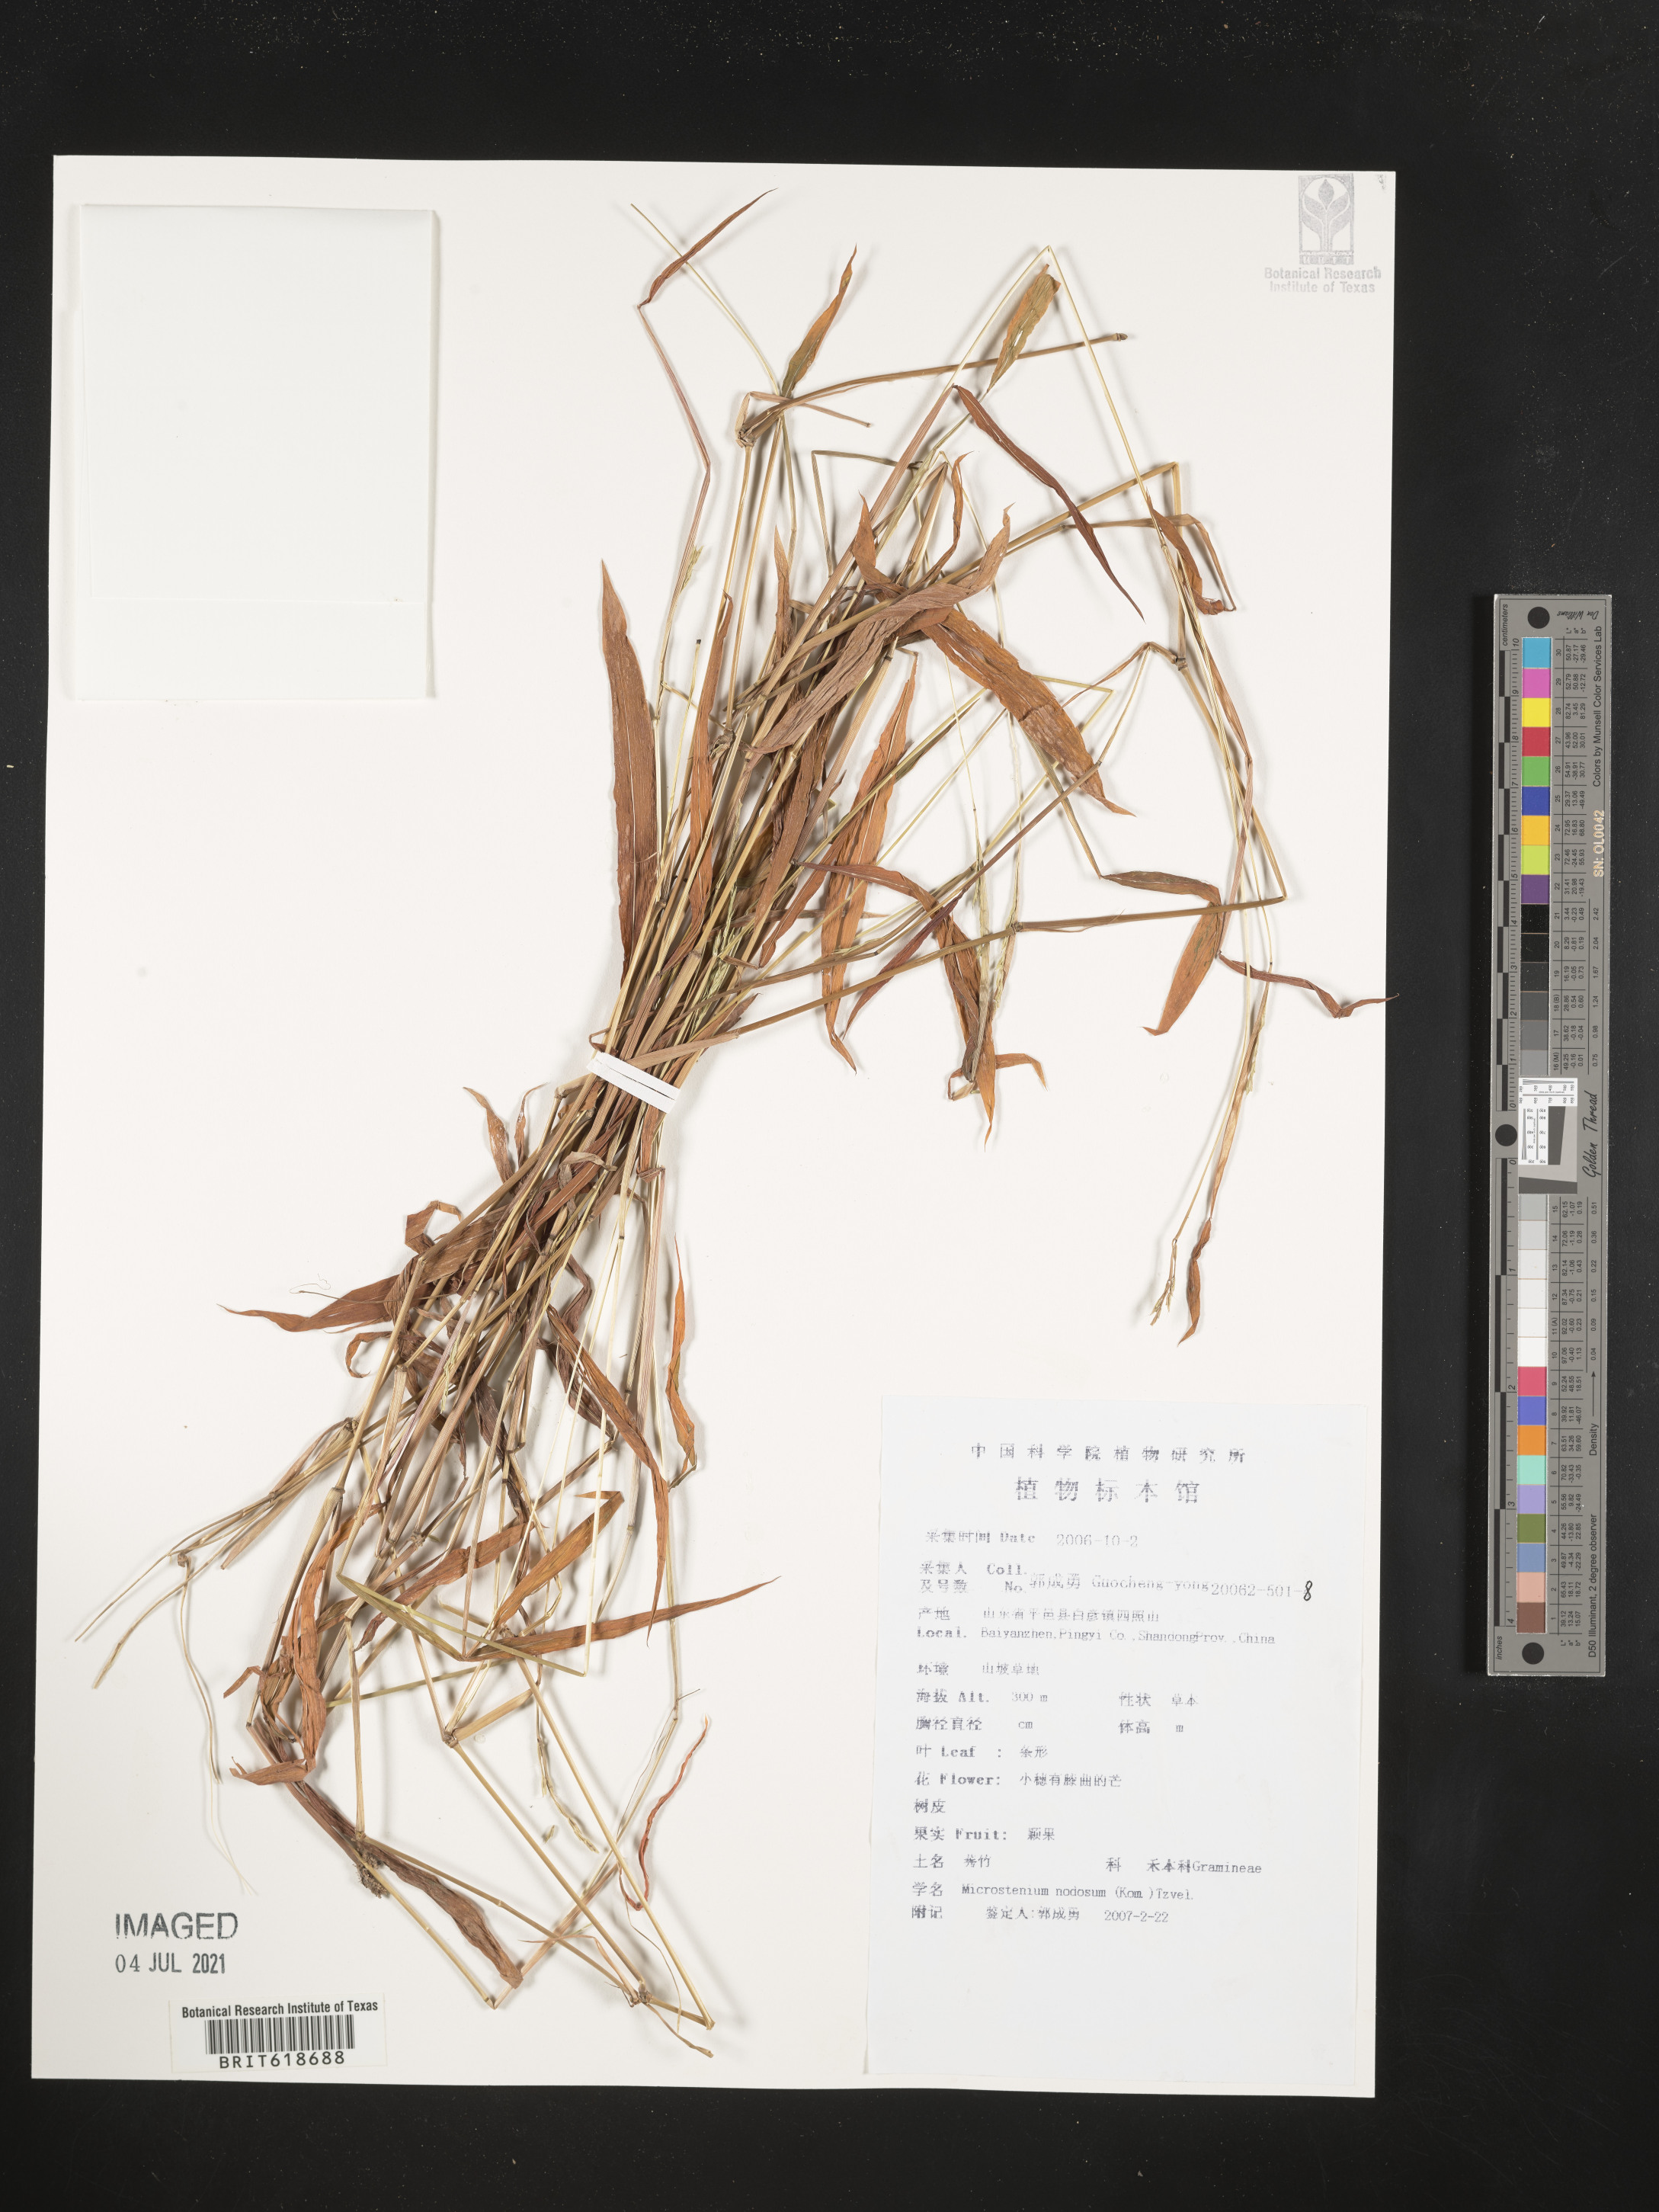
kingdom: Plantae
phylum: Tracheophyta
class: Liliopsida
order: Poales
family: Poaceae
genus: Microstegium
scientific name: Microstegium vimineum
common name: Japanese stiltgrass
